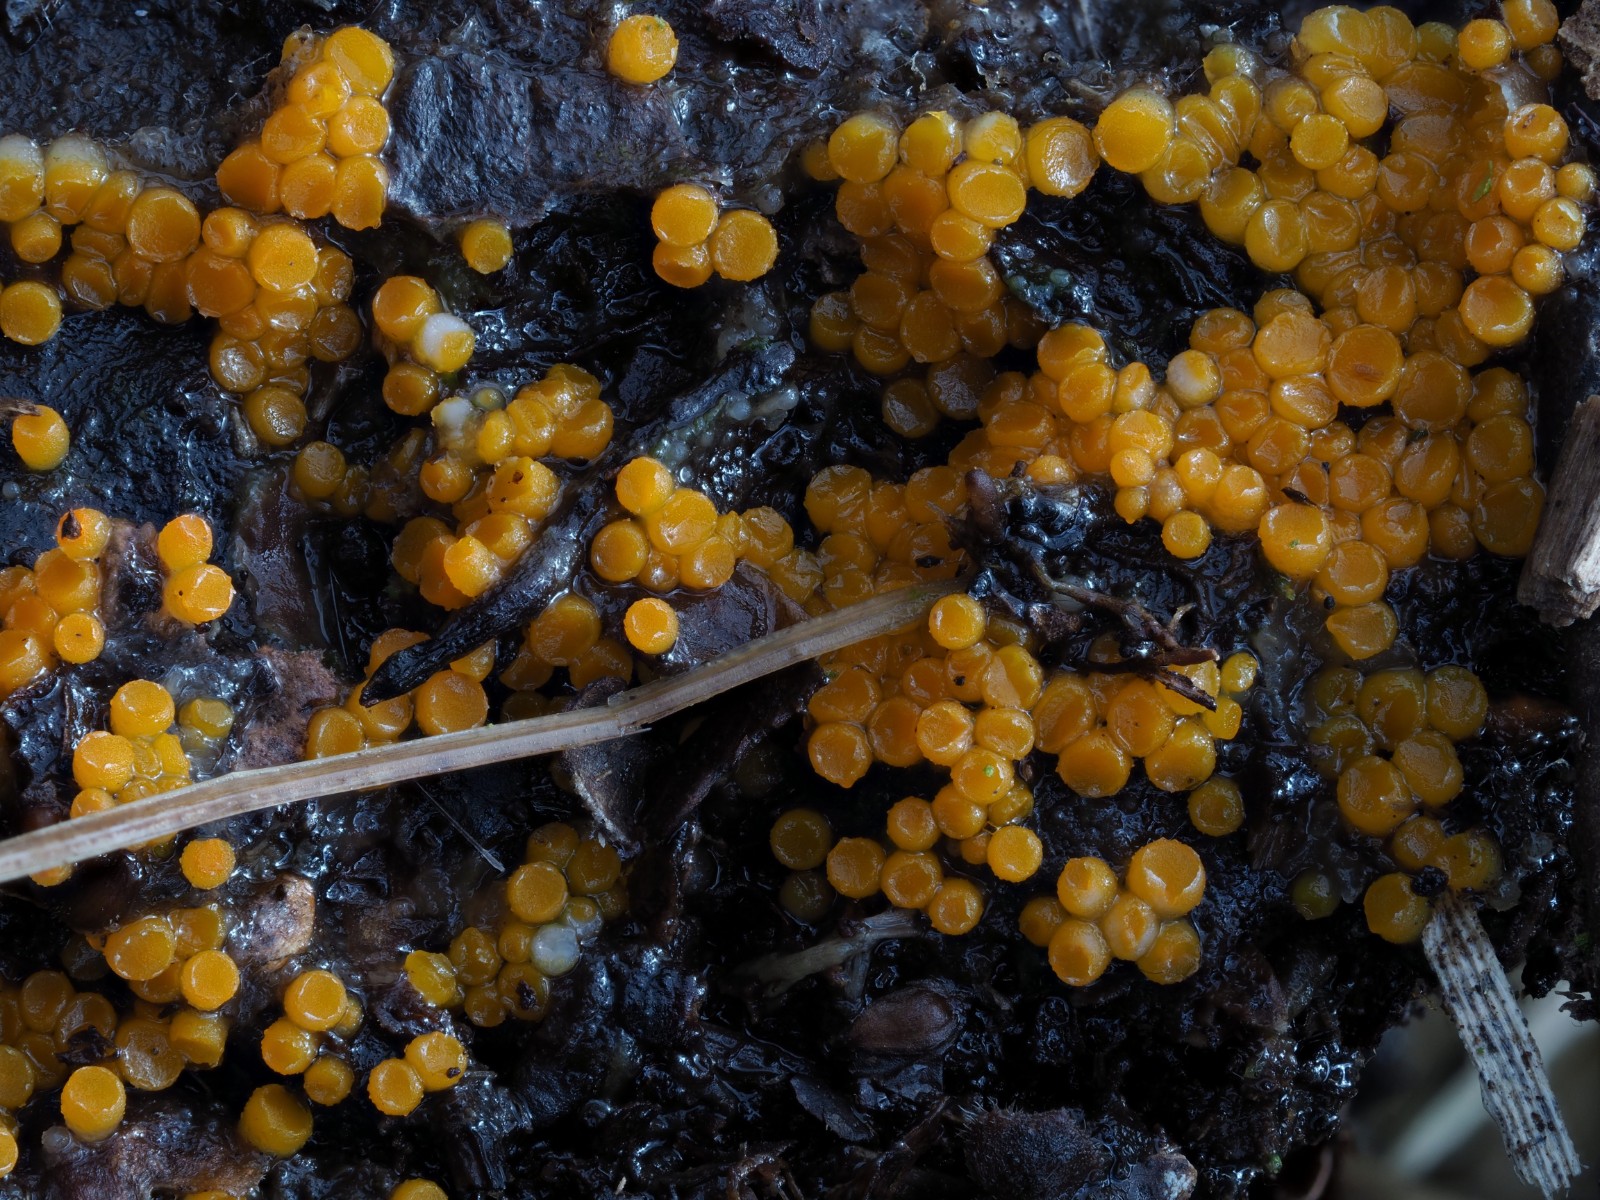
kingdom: Fungi
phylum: Ascomycota
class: Pezizomycetes
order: Pezizales
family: Pyronemataceae
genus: Byssonectria
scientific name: Byssonectria terrestris
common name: hjortebæger
